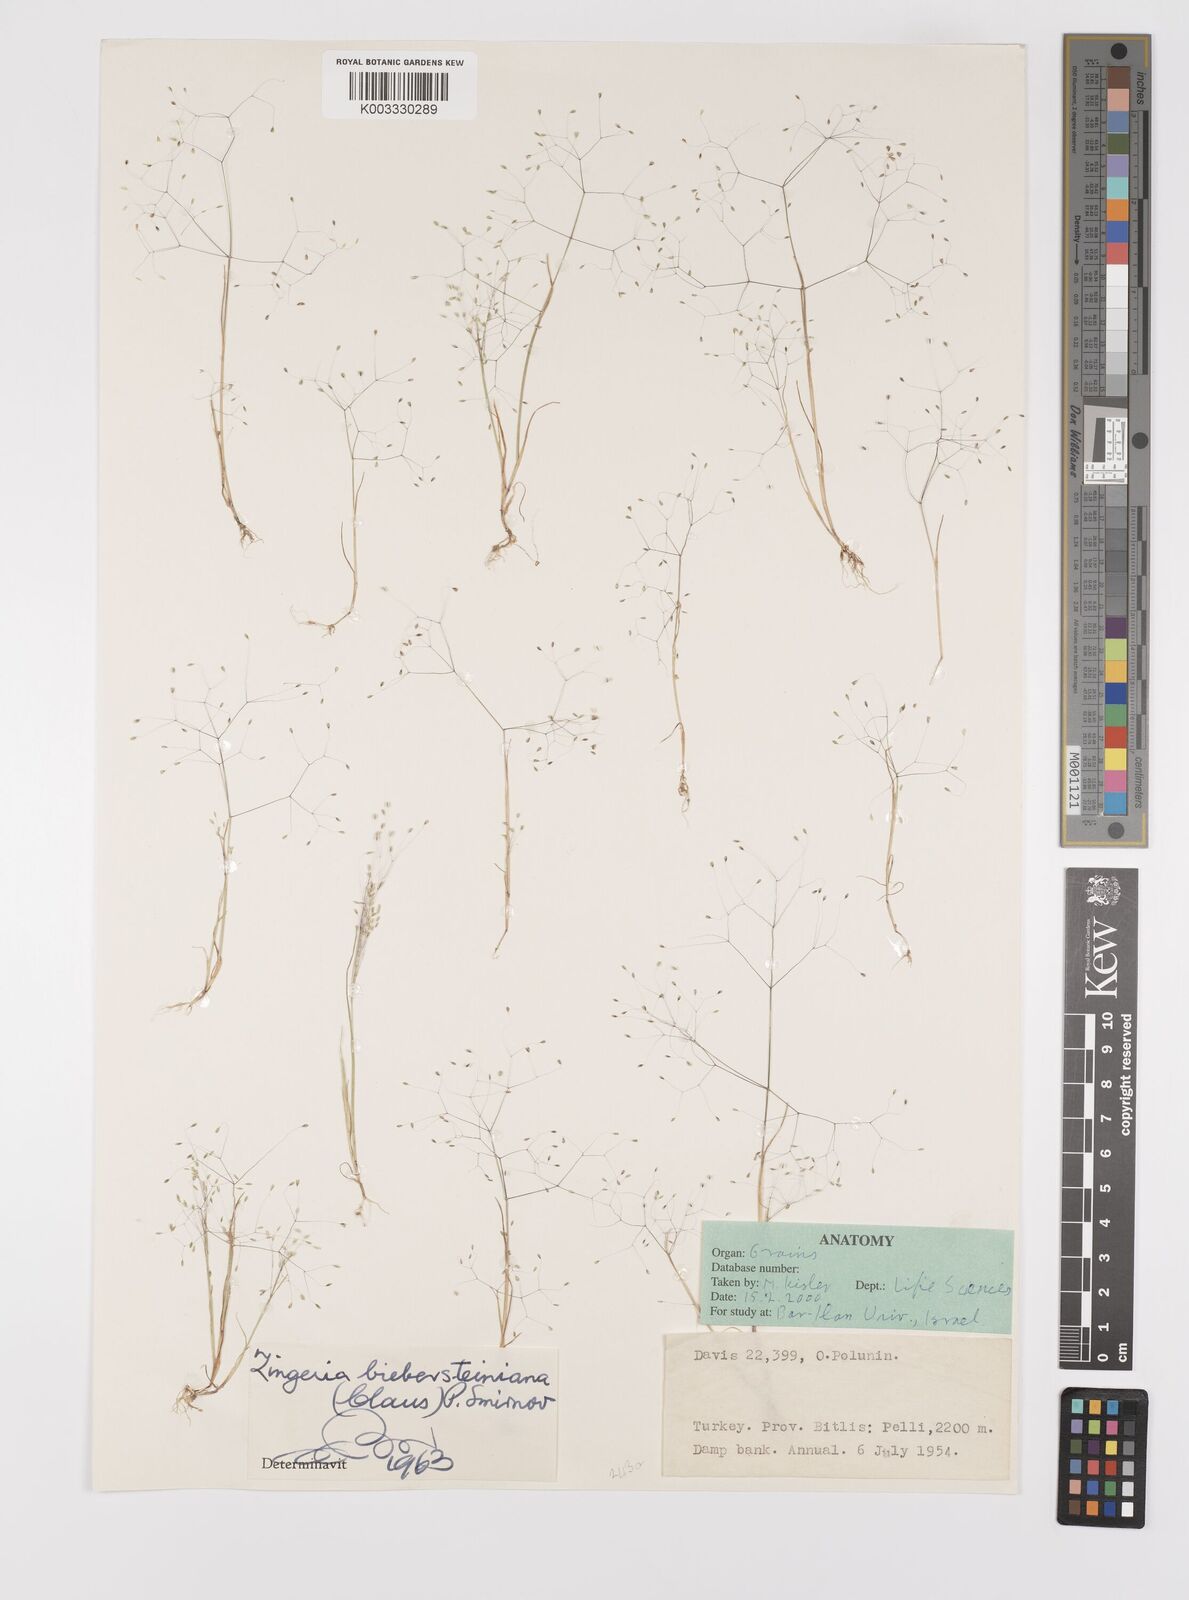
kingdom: Plantae
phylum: Tracheophyta
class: Liliopsida
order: Poales
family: Poaceae
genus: Colpodium
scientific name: Colpodium biebersteinianum
